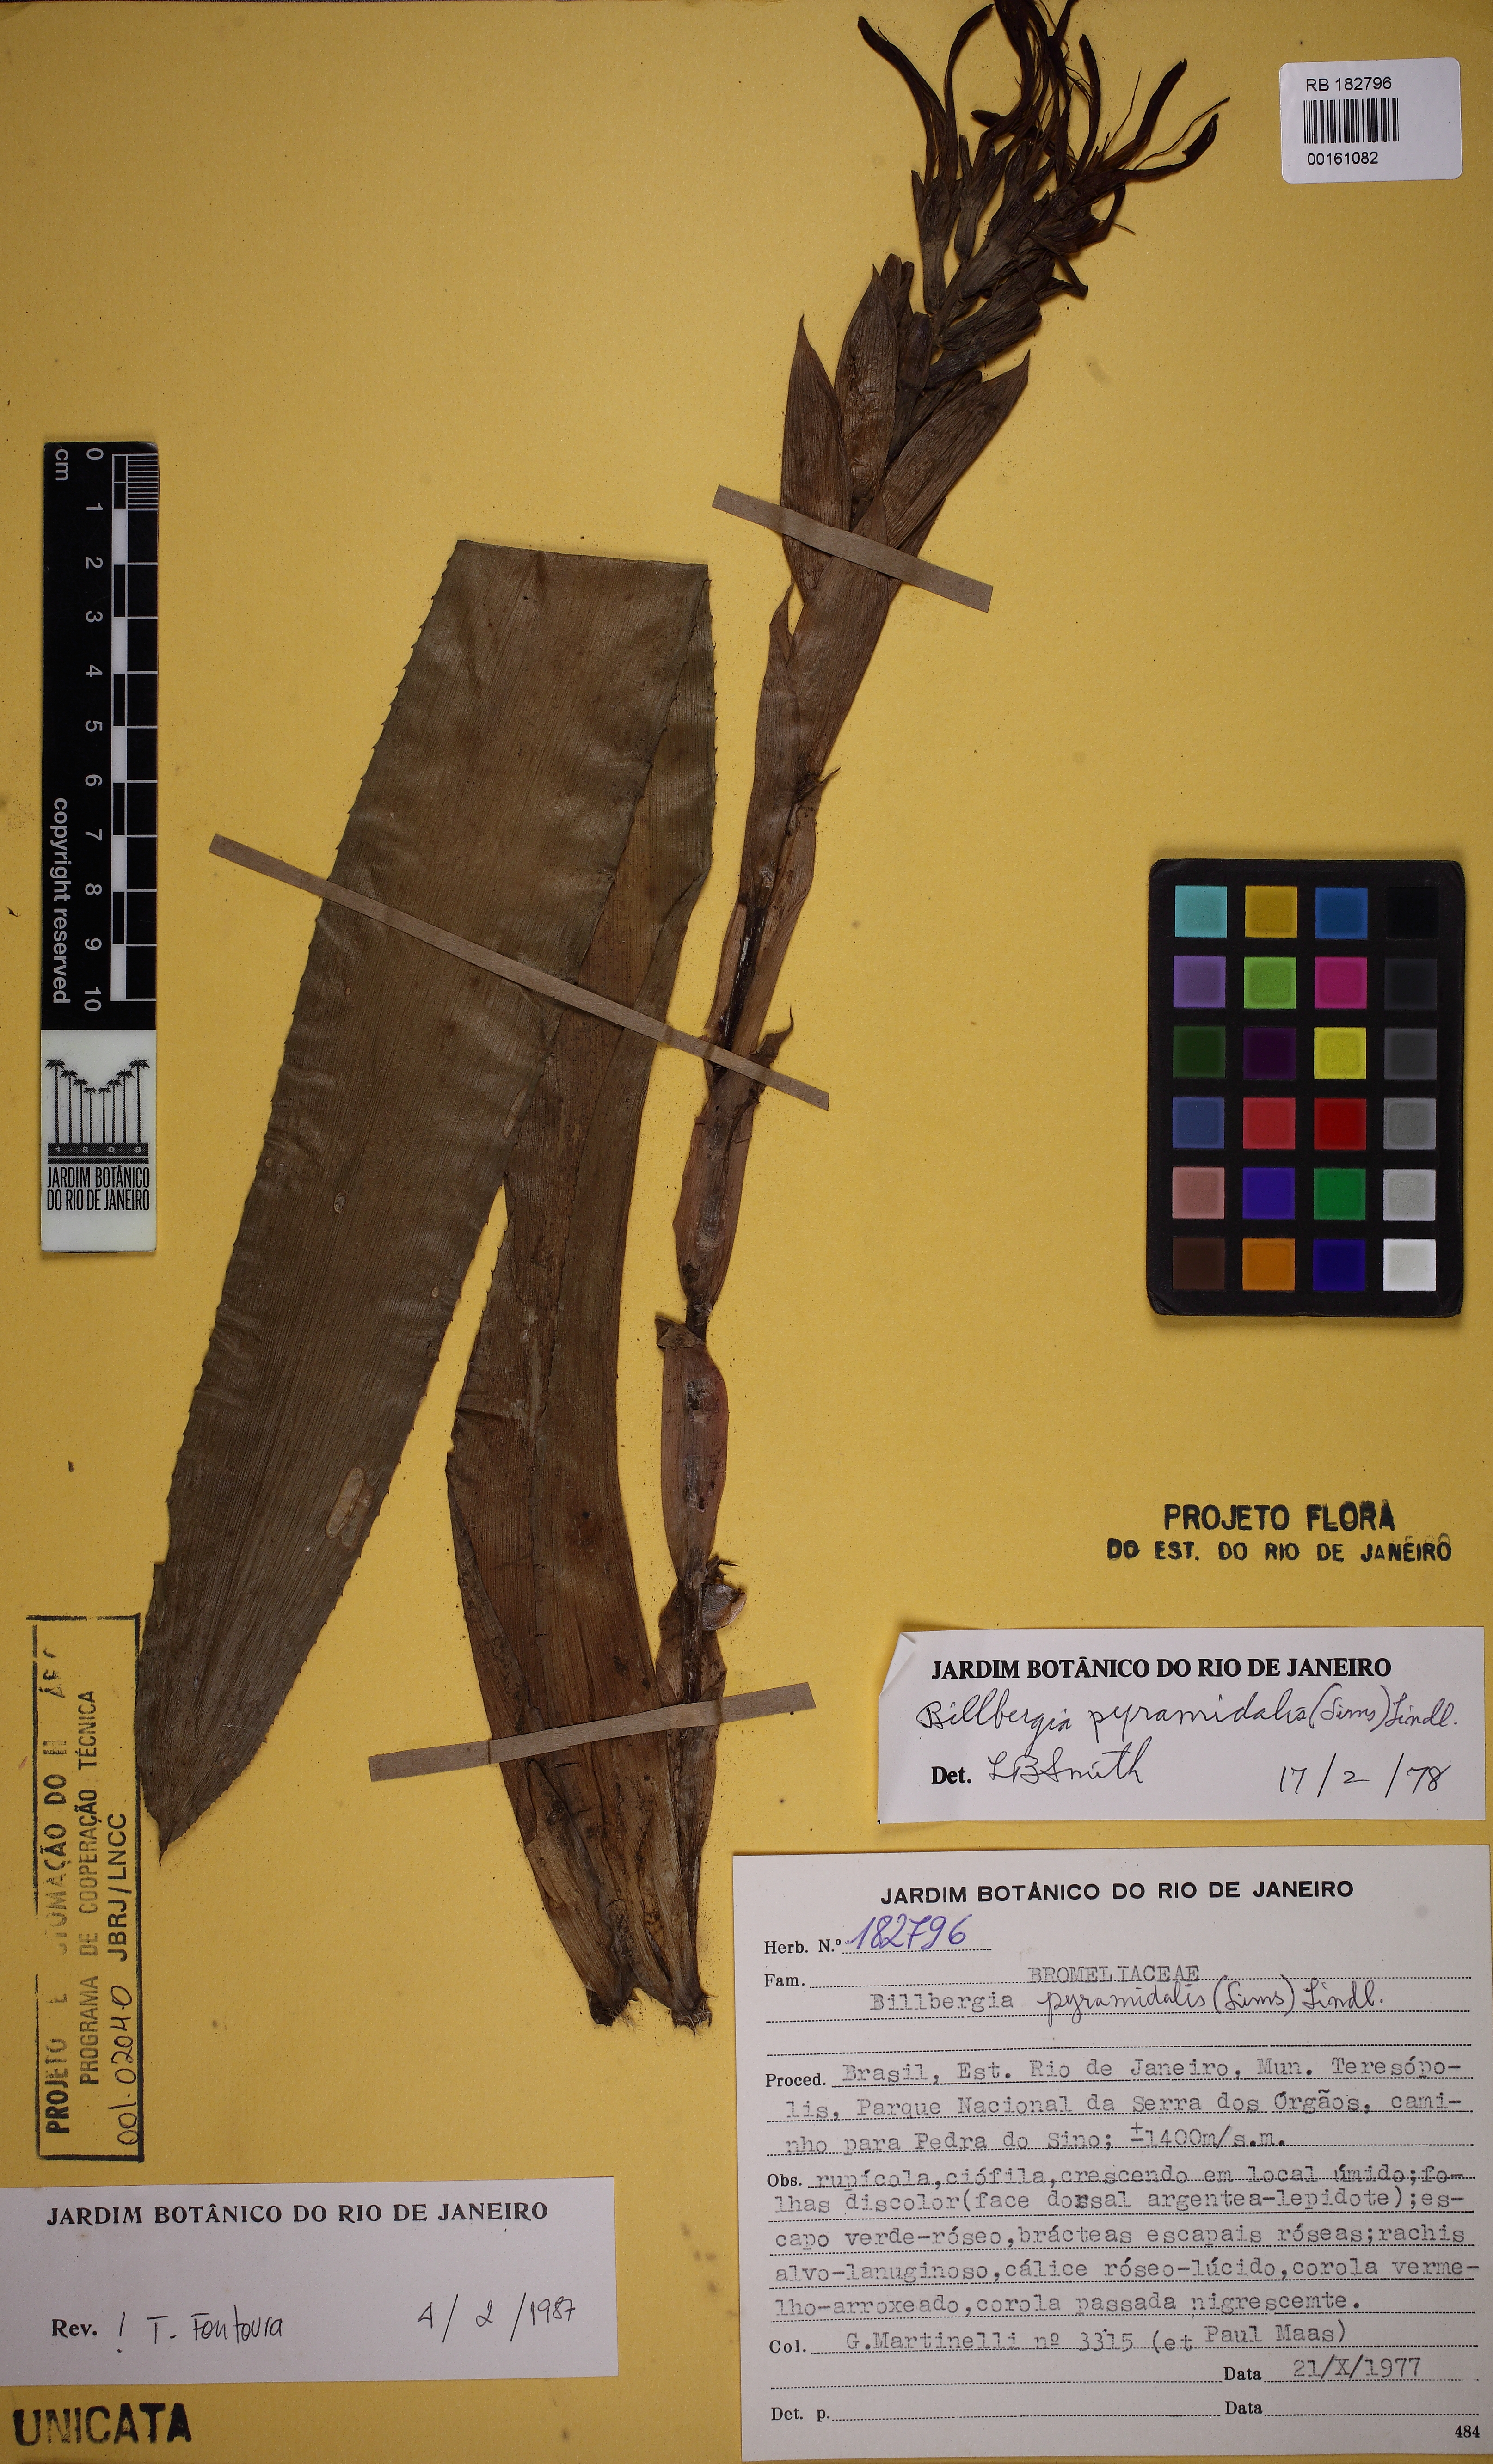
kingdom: Plantae
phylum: Tracheophyta
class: Liliopsida
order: Poales
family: Bromeliaceae
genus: Billbergia
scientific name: Billbergia pyramidalis
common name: Foolproofplant
